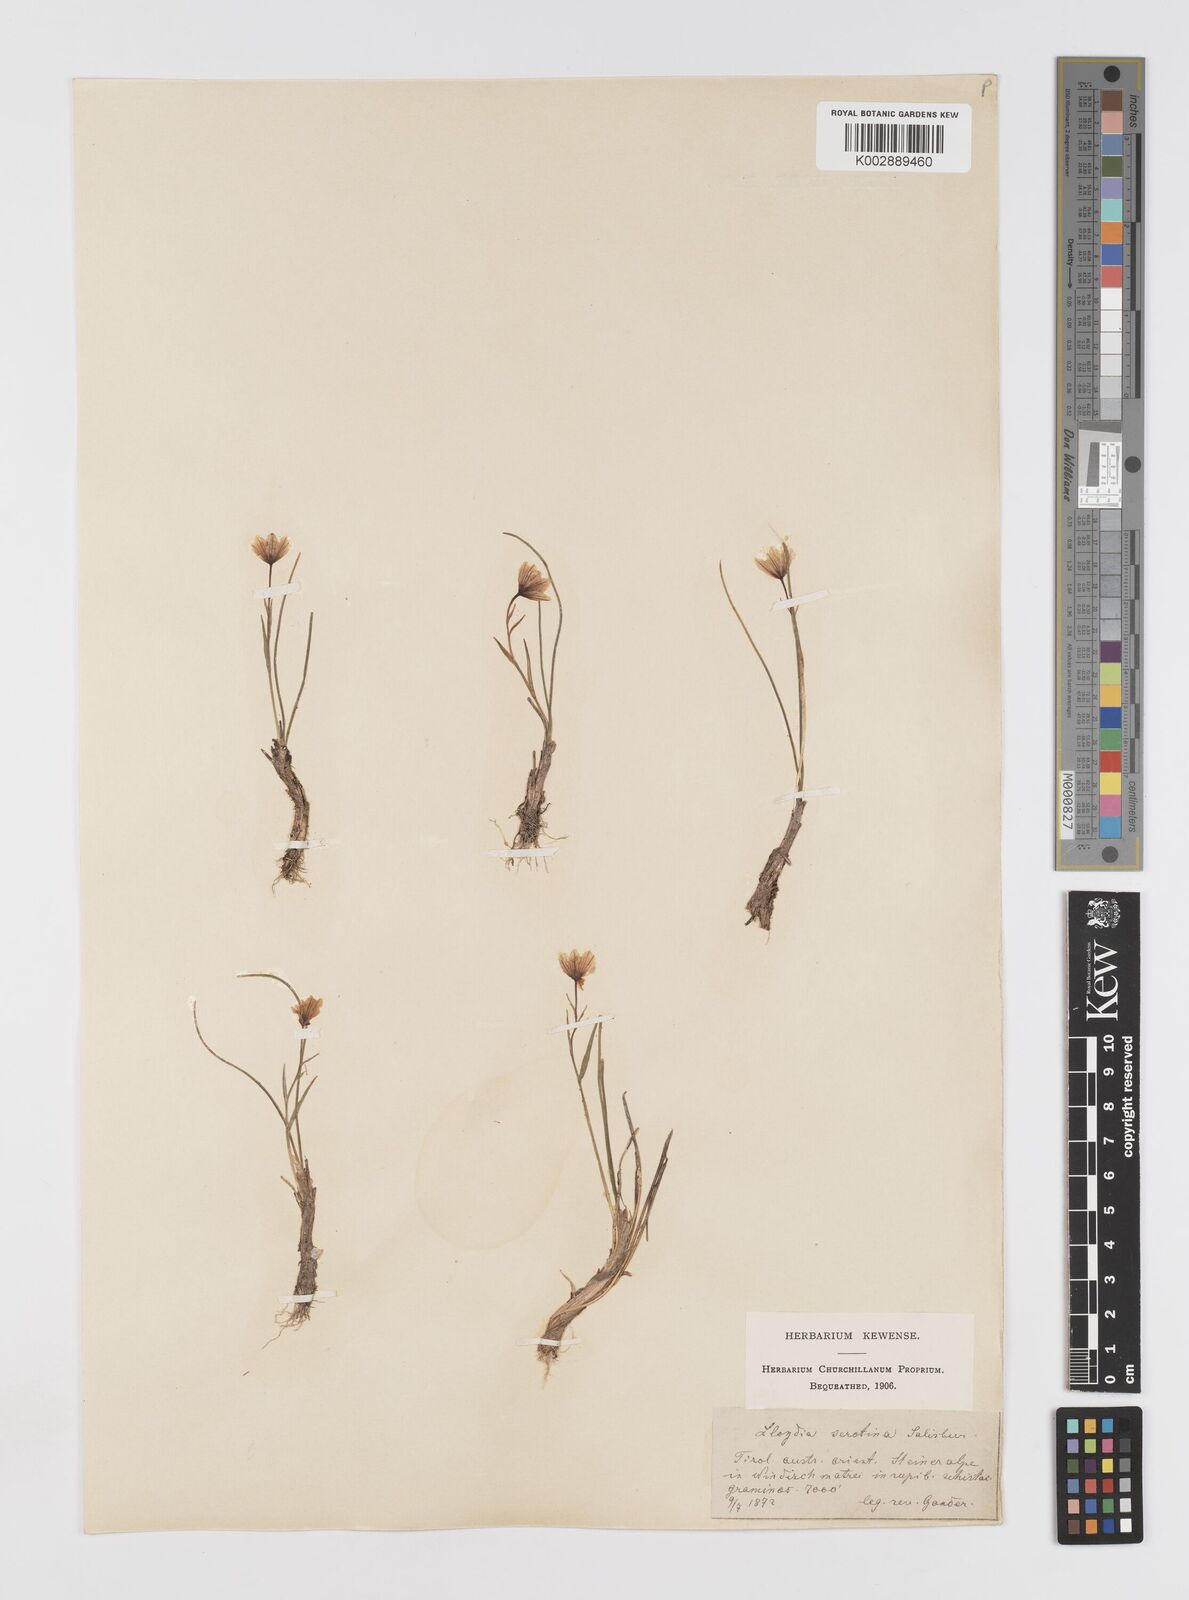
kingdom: Plantae
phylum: Tracheophyta
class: Liliopsida
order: Liliales
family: Liliaceae
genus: Gagea
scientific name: Gagea
